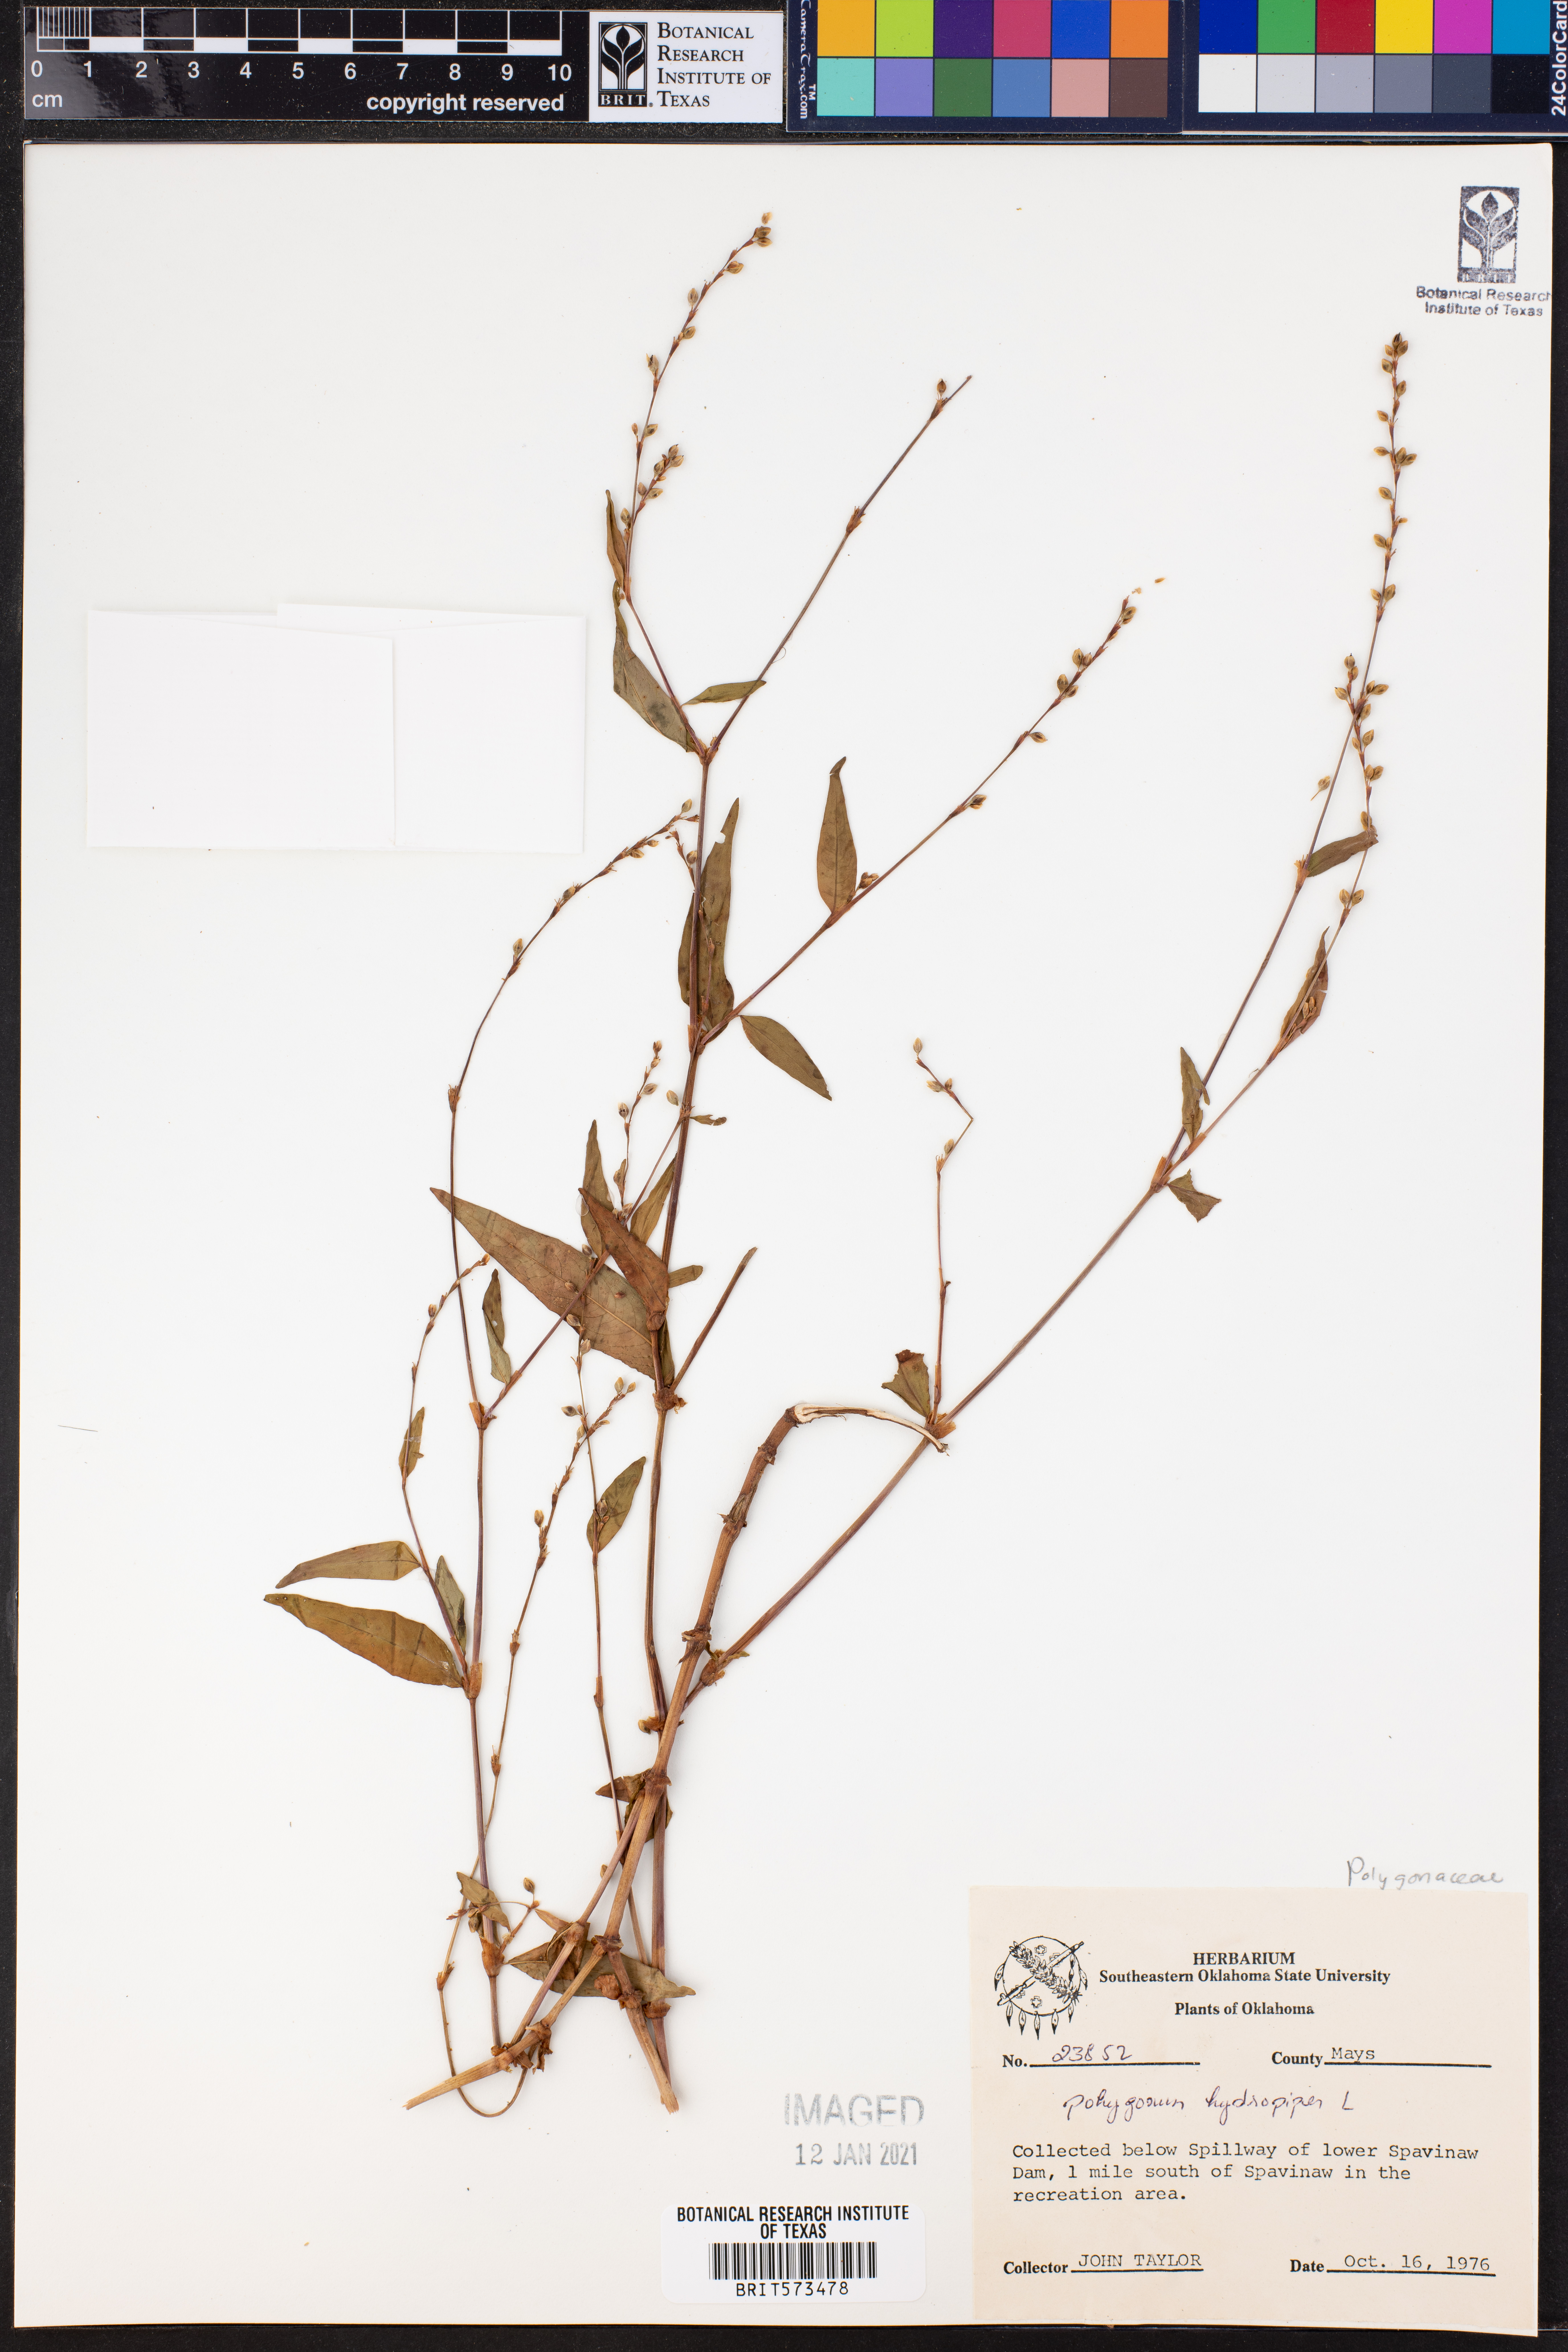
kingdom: Plantae
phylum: Tracheophyta
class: Magnoliopsida
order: Caryophyllales
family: Polygonaceae
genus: Persicaria
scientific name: Persicaria hydropiper
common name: Water-pepper
